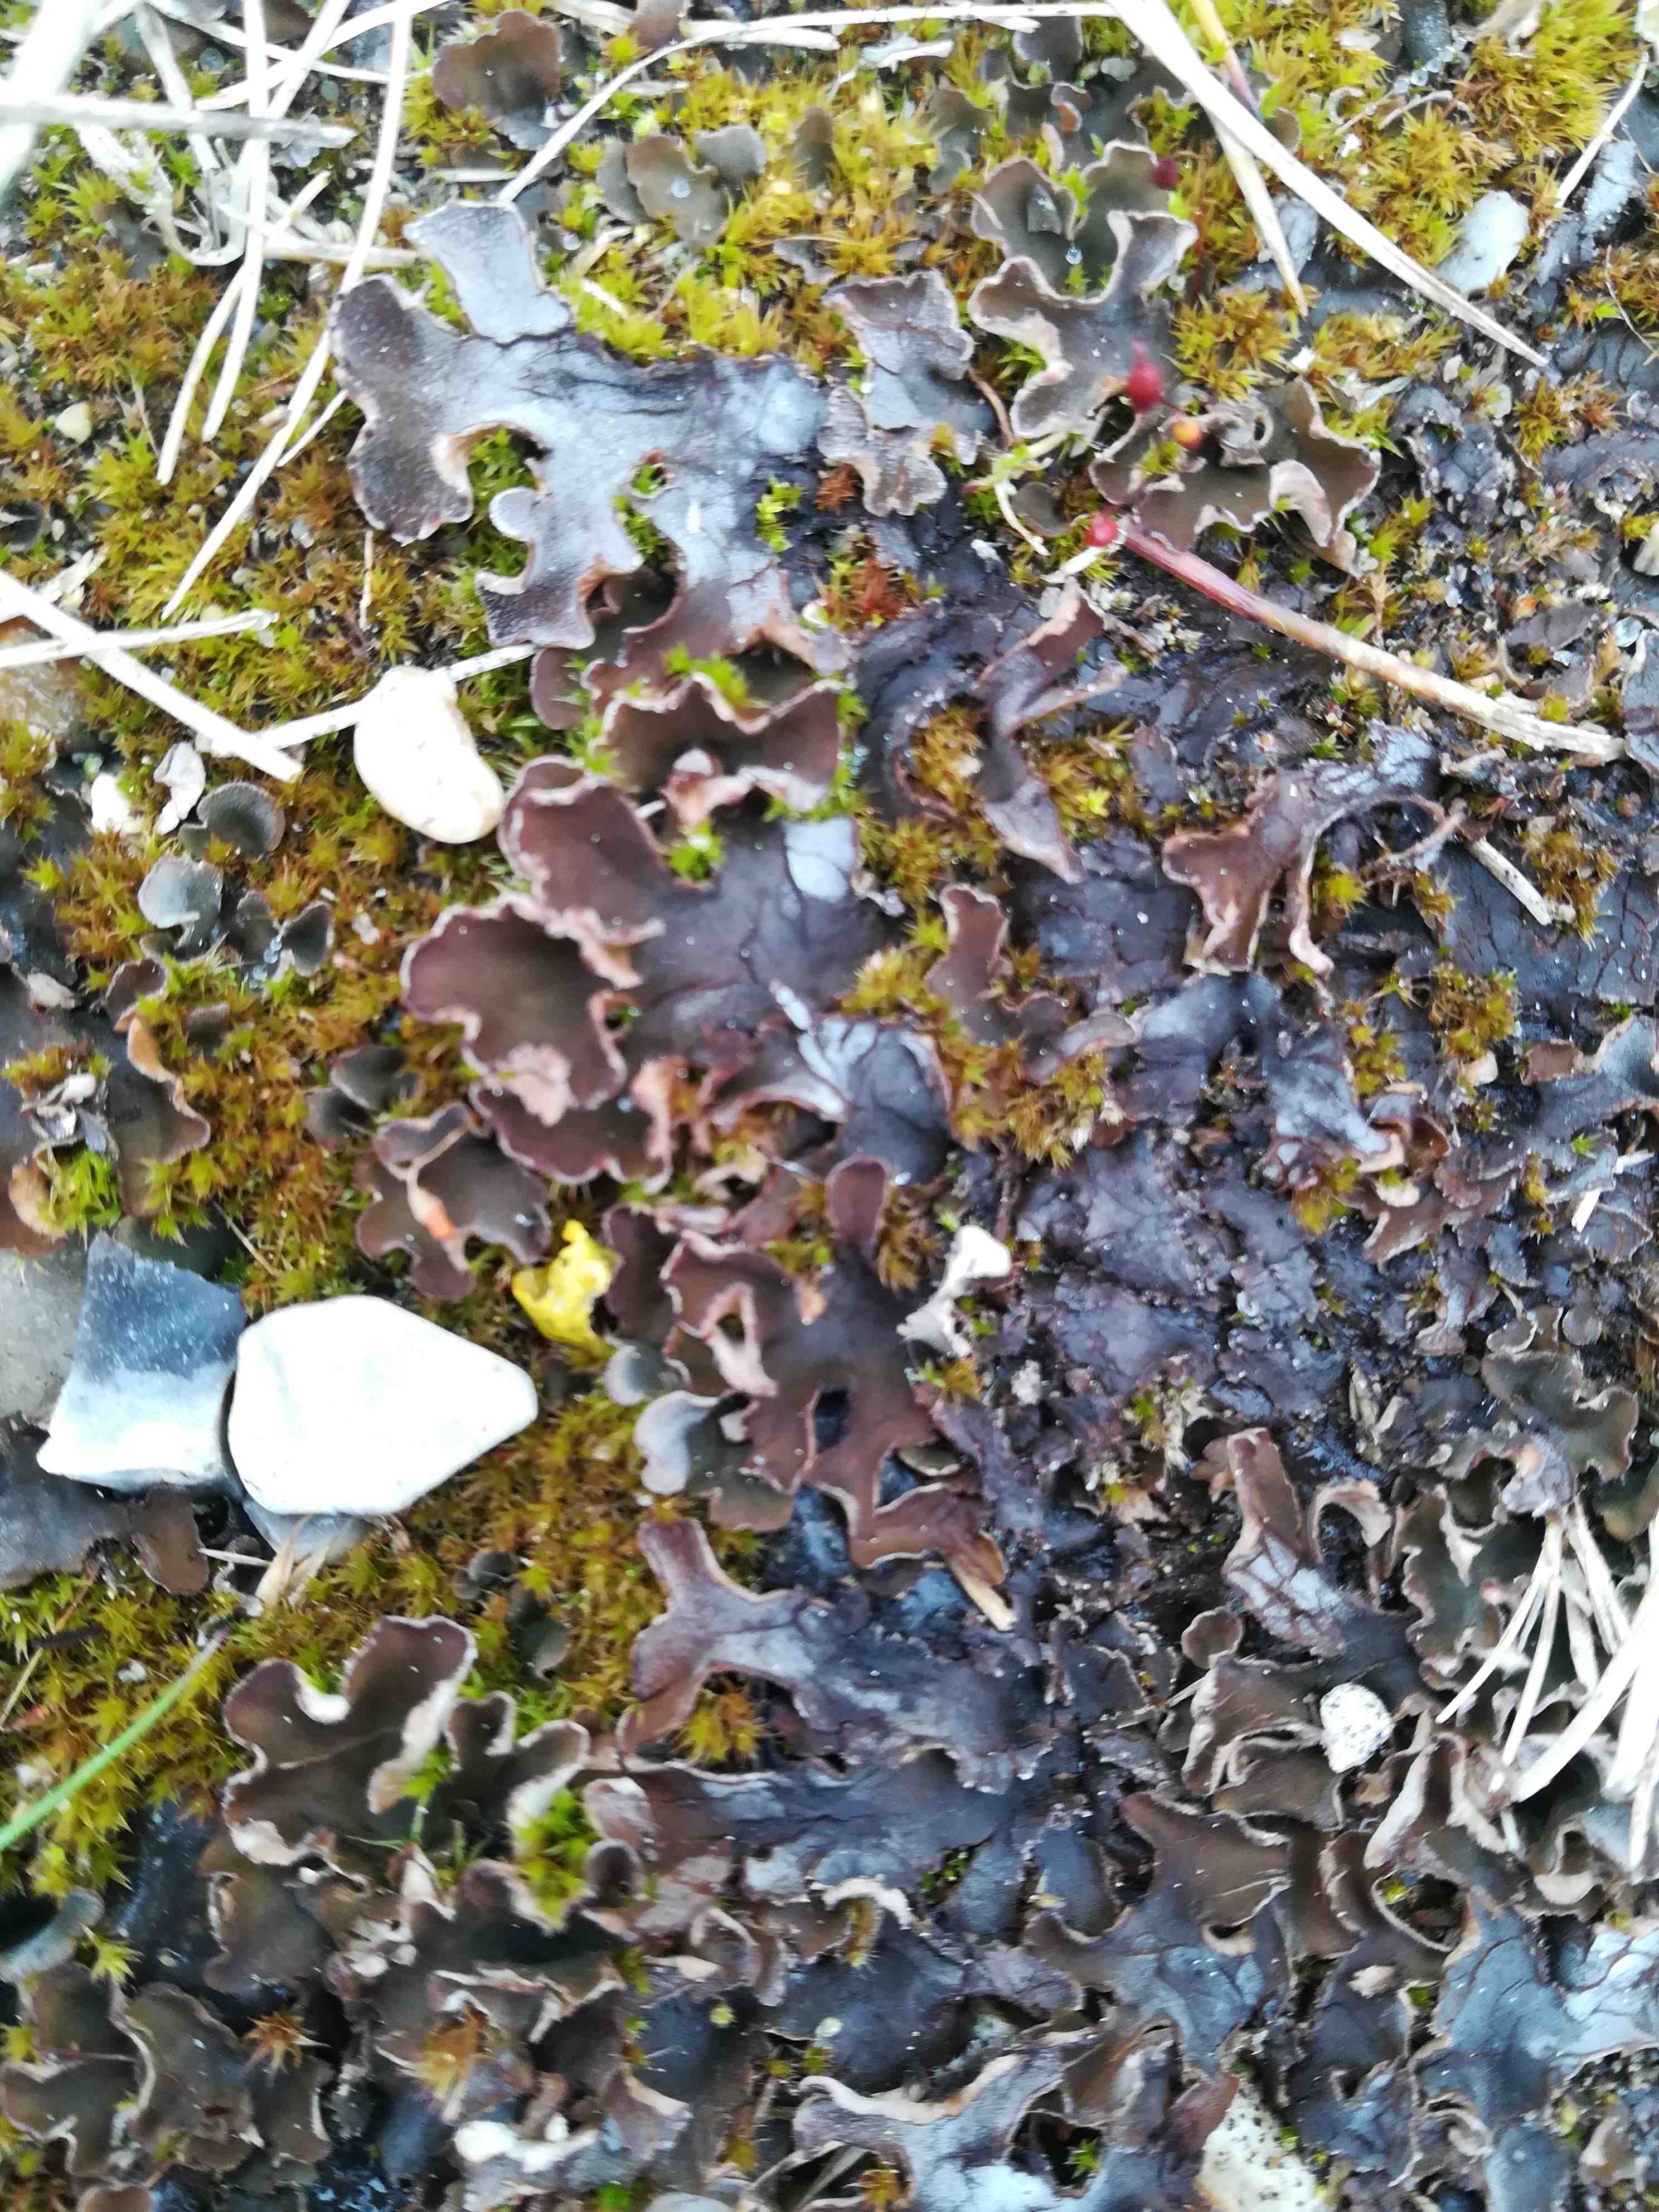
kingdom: Fungi
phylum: Ascomycota
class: Lecanoromycetes
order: Peltigerales
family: Peltigeraceae
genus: Peltigera
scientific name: Peltigera
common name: skjoldlav
